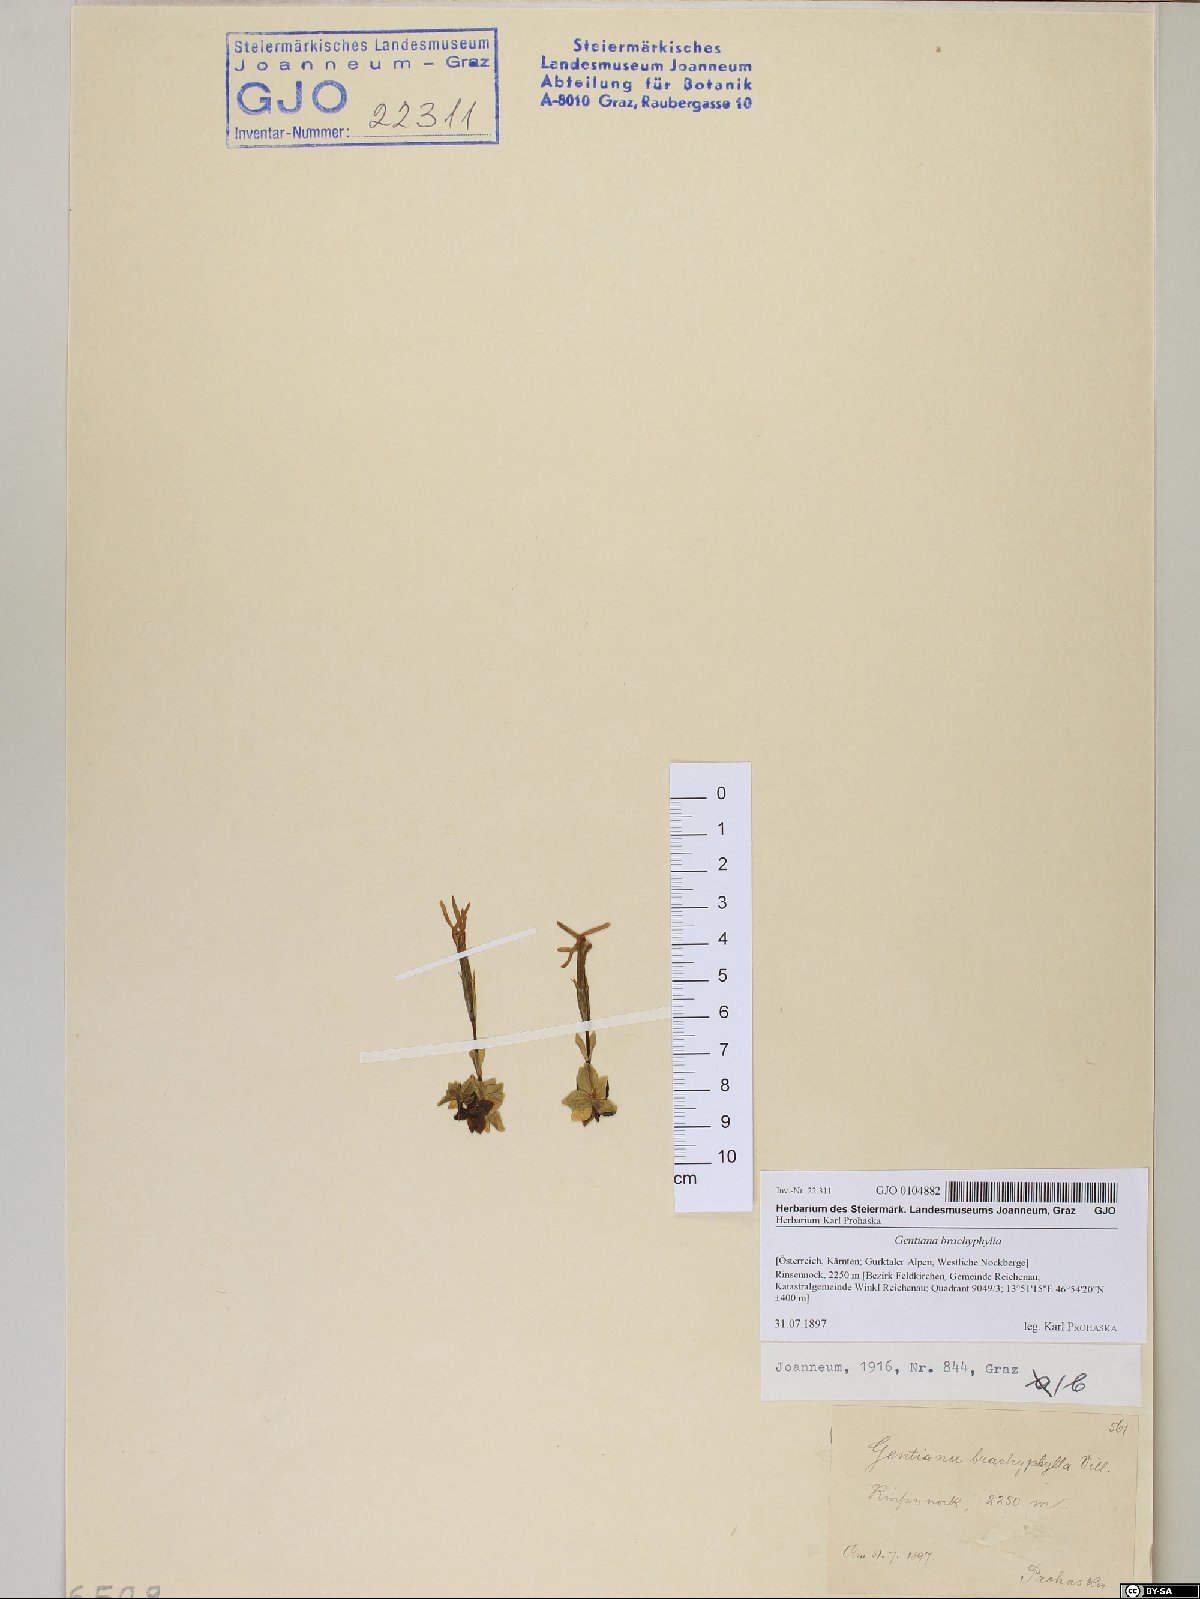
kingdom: Plantae
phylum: Tracheophyta
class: Magnoliopsida
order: Gentianales
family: Gentianaceae
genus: Gentiana
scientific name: Gentiana brachyphylla
